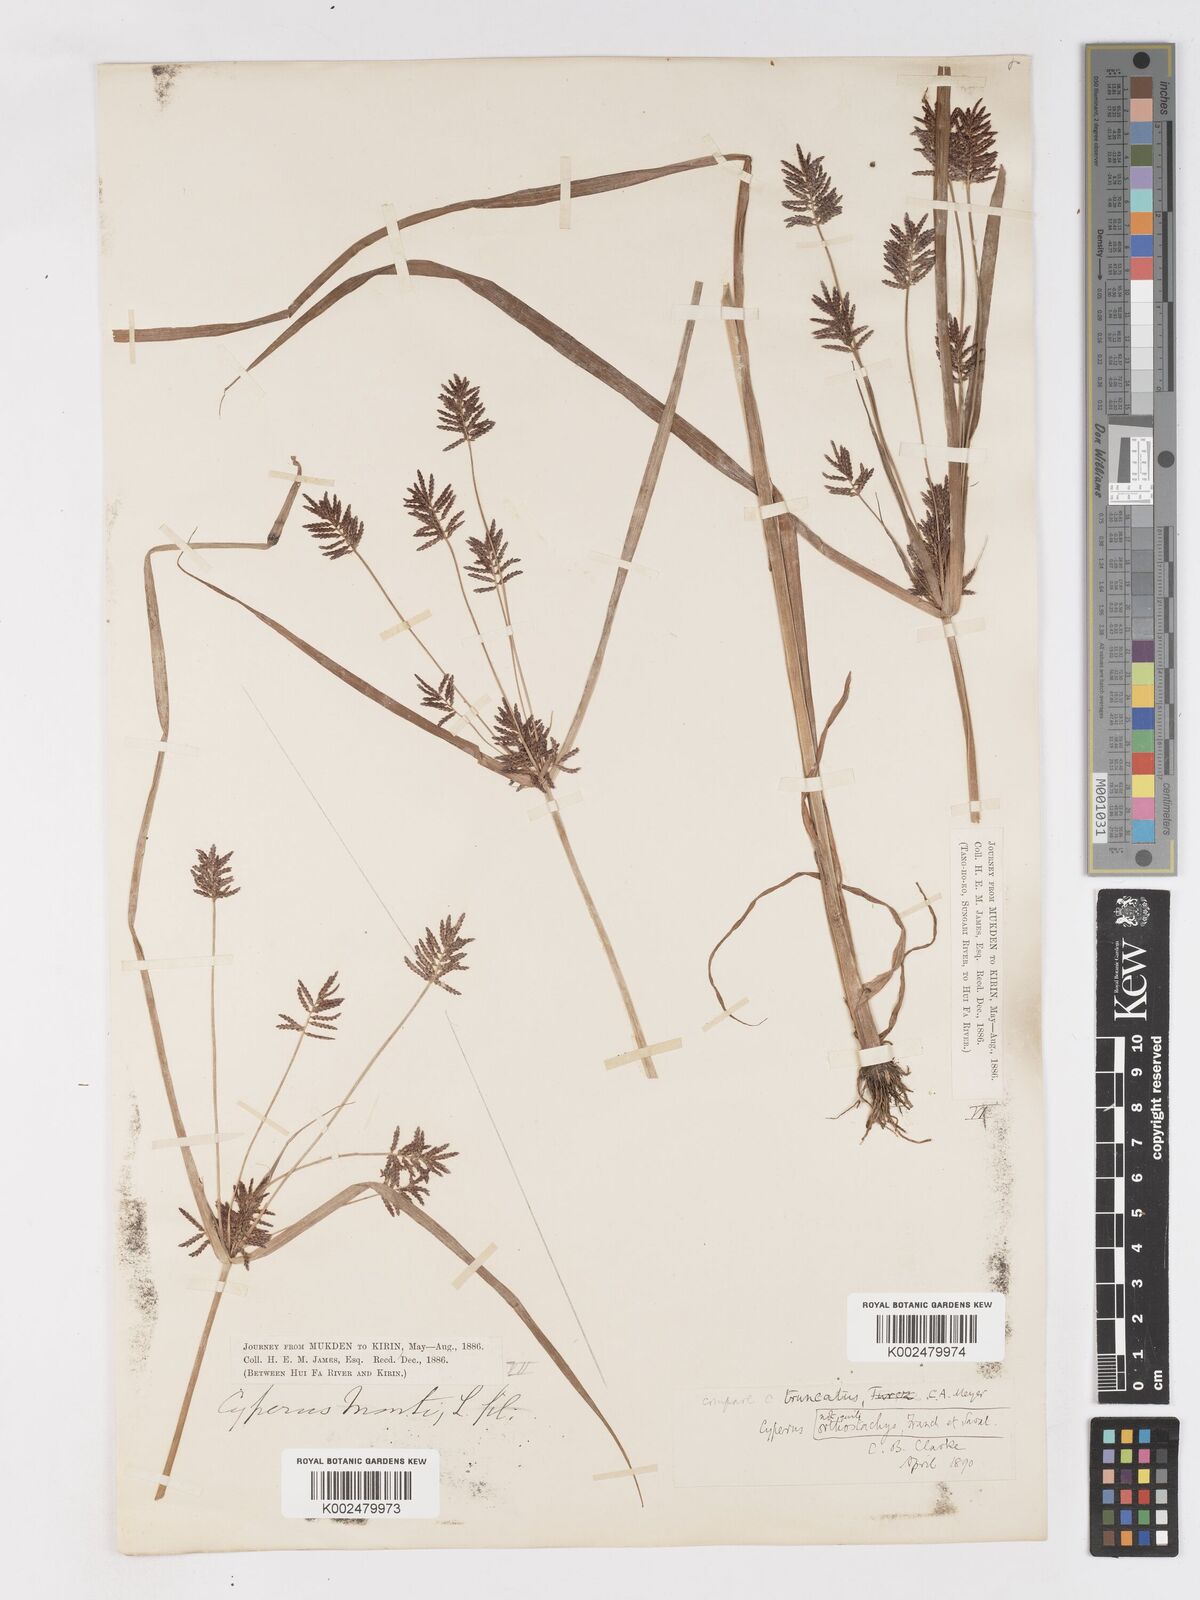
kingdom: Plantae
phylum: Tracheophyta
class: Liliopsida
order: Poales
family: Cyperaceae
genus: Cyperus
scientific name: Cyperus orthostachyus
